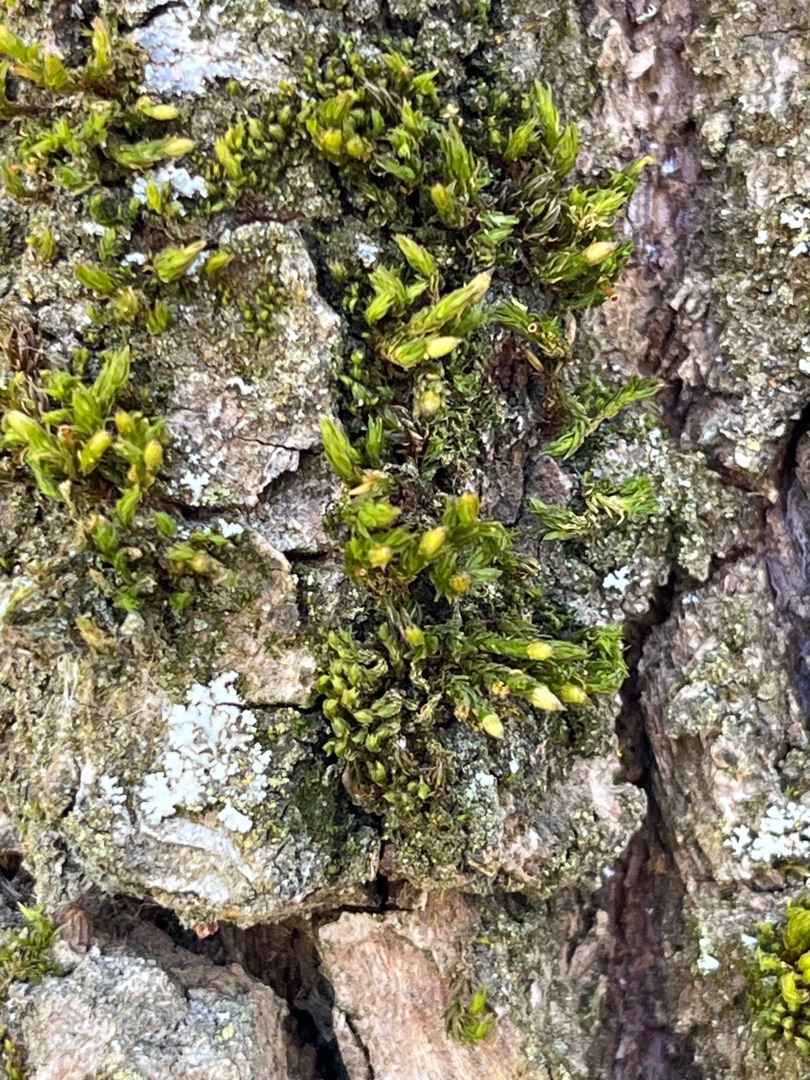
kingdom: Plantae
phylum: Bryophyta
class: Bryopsida
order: Orthotrichales
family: Orthotrichaceae
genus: Orthotrichum
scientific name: Orthotrichum
